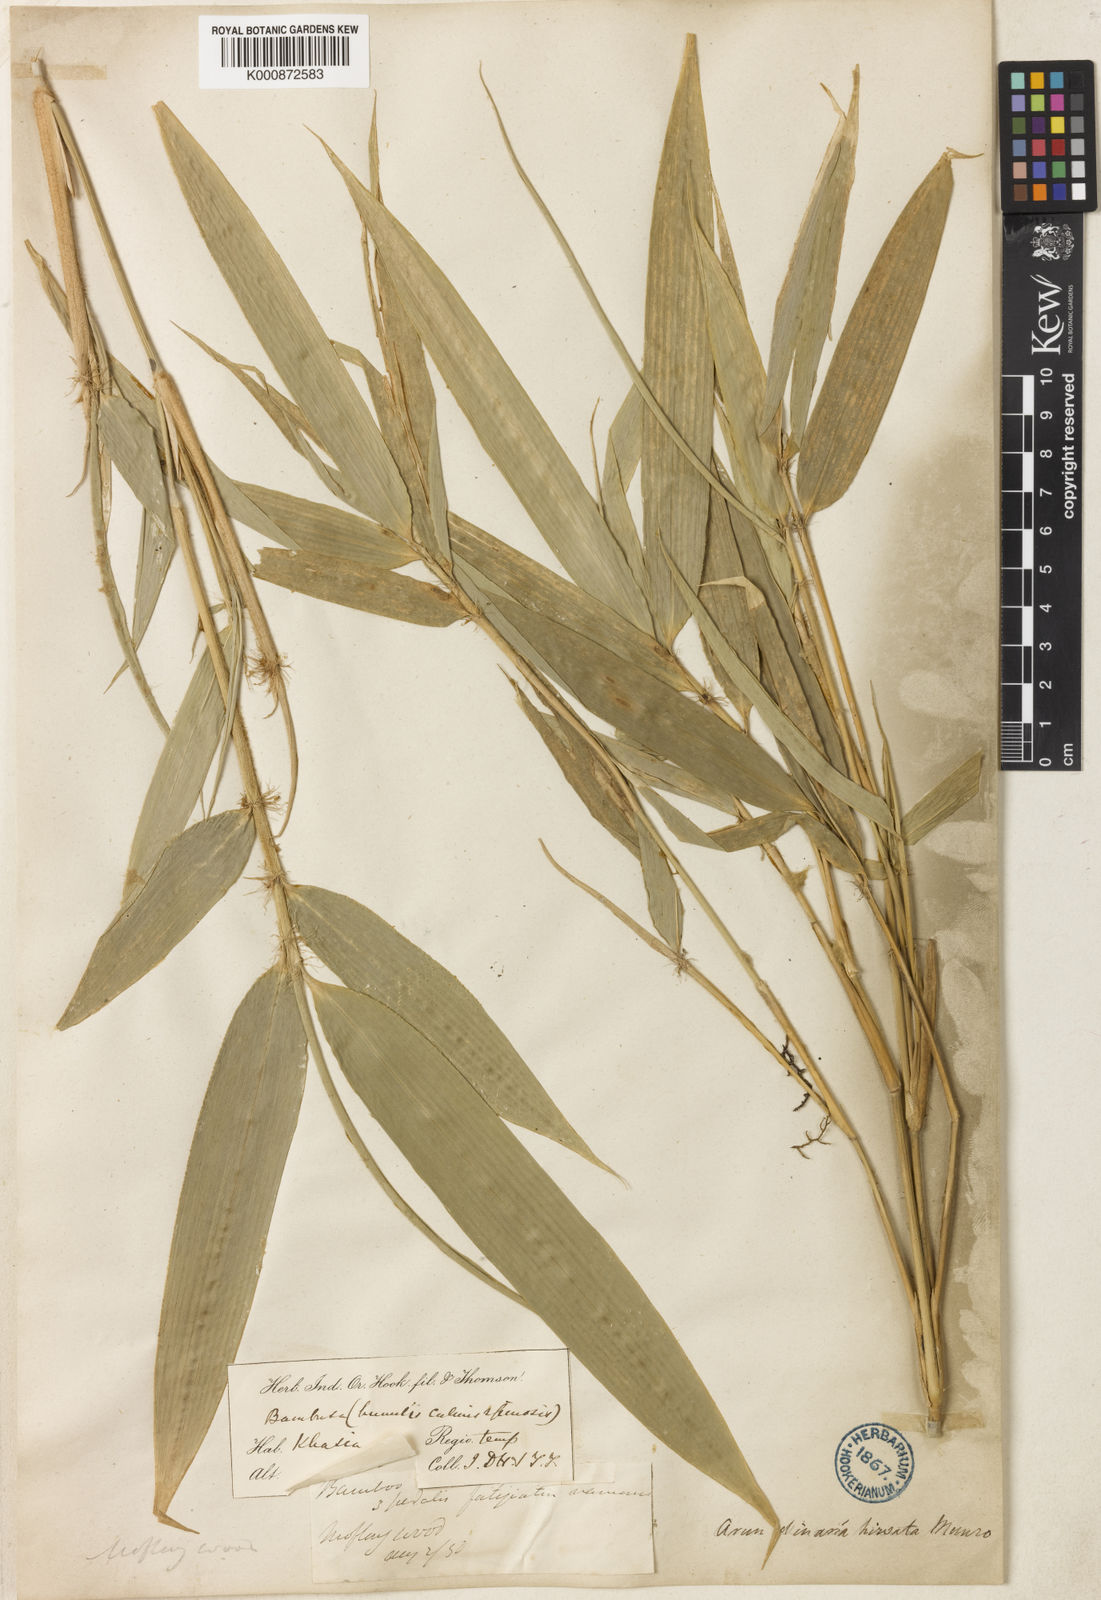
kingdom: Plantae
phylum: Tracheophyta
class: Liliopsida
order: Poales
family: Poaceae
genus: Yushania
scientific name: Yushania
